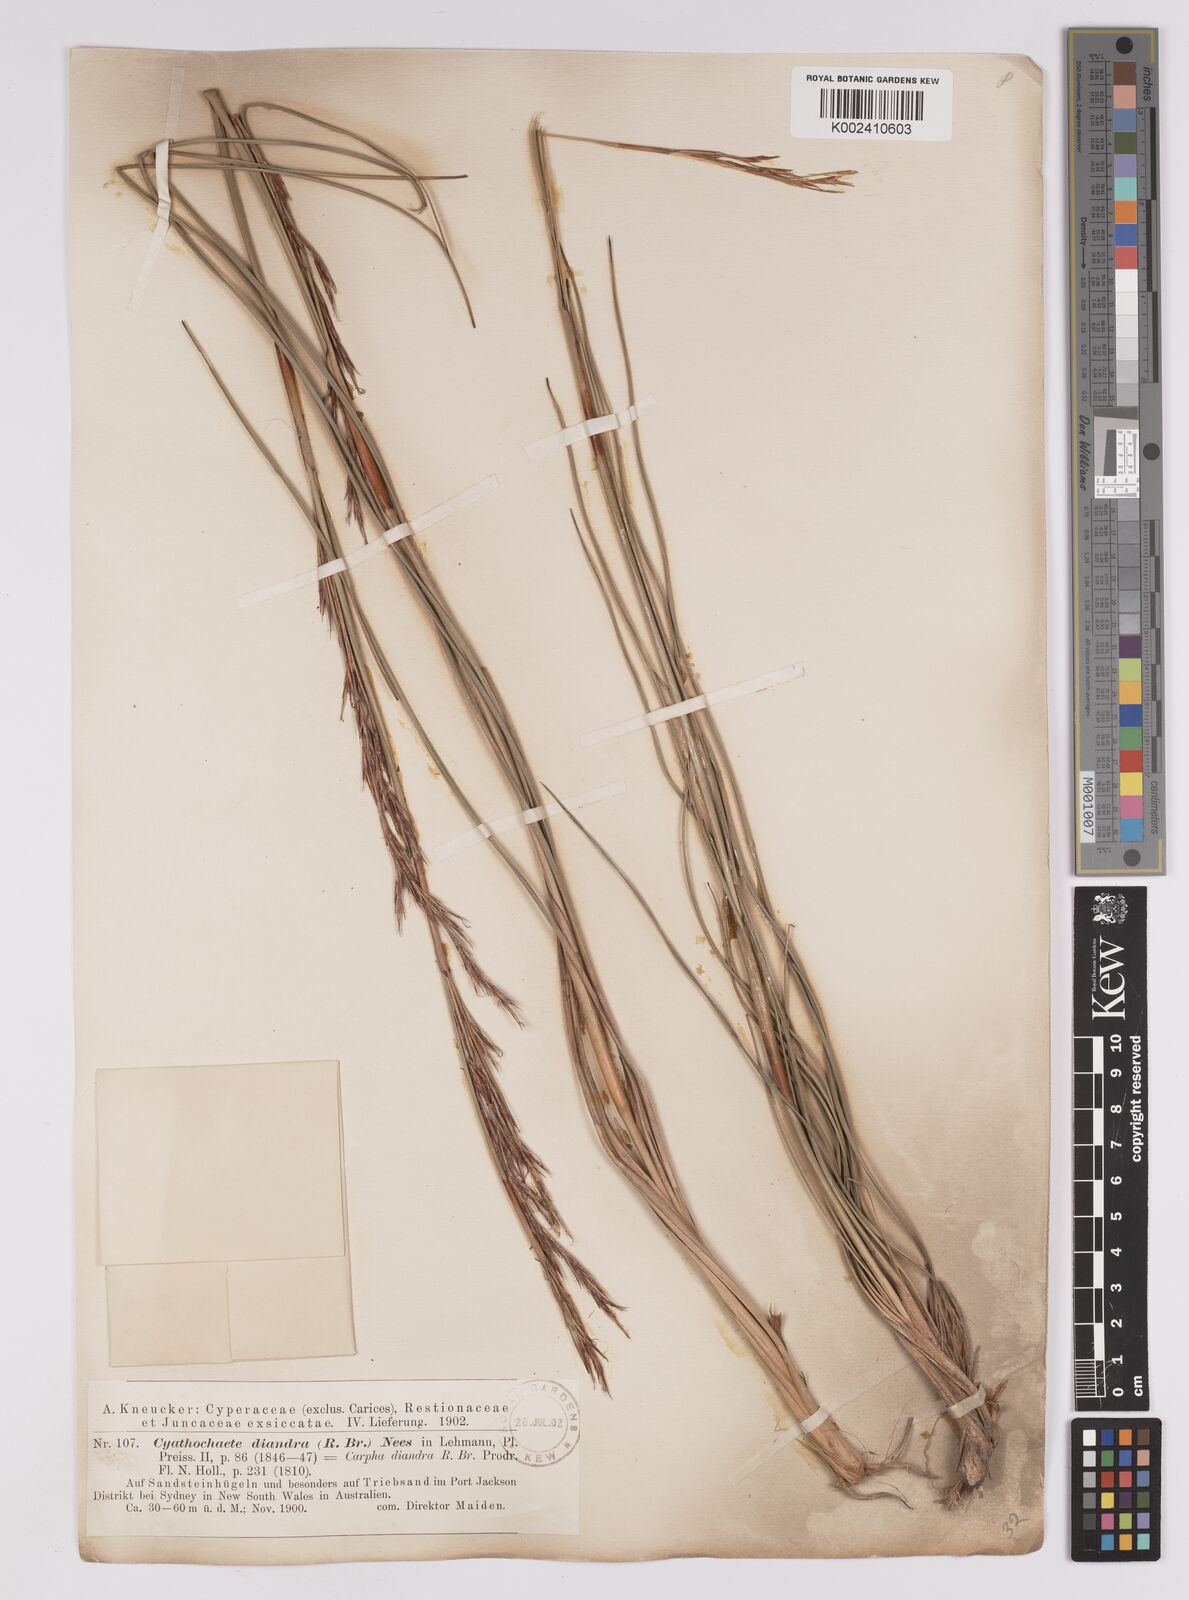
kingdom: Plantae
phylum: Tracheophyta
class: Liliopsida
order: Poales
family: Cyperaceae
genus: Cyathochaeta
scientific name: Cyathochaeta diandra
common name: Sheath rush
